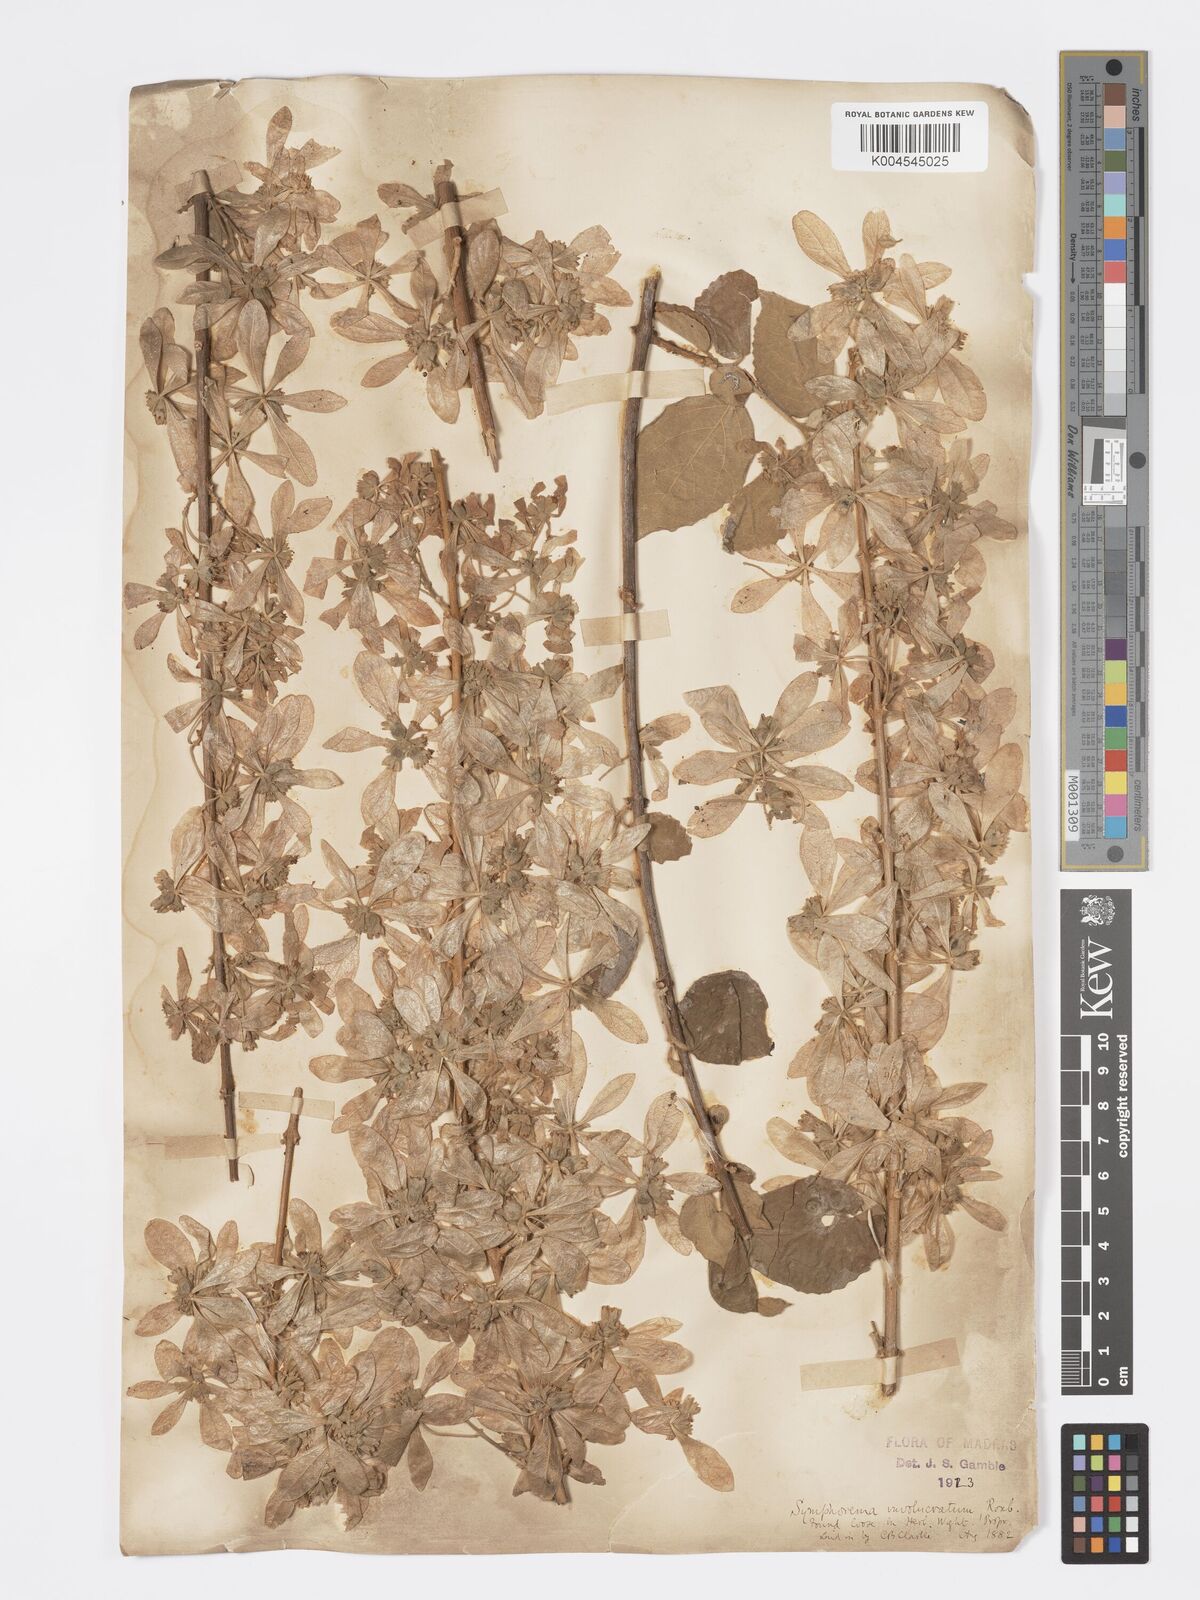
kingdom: Plantae
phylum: Tracheophyta
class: Magnoliopsida
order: Lamiales
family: Lamiaceae
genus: Symphorema
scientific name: Symphorema involucratum
